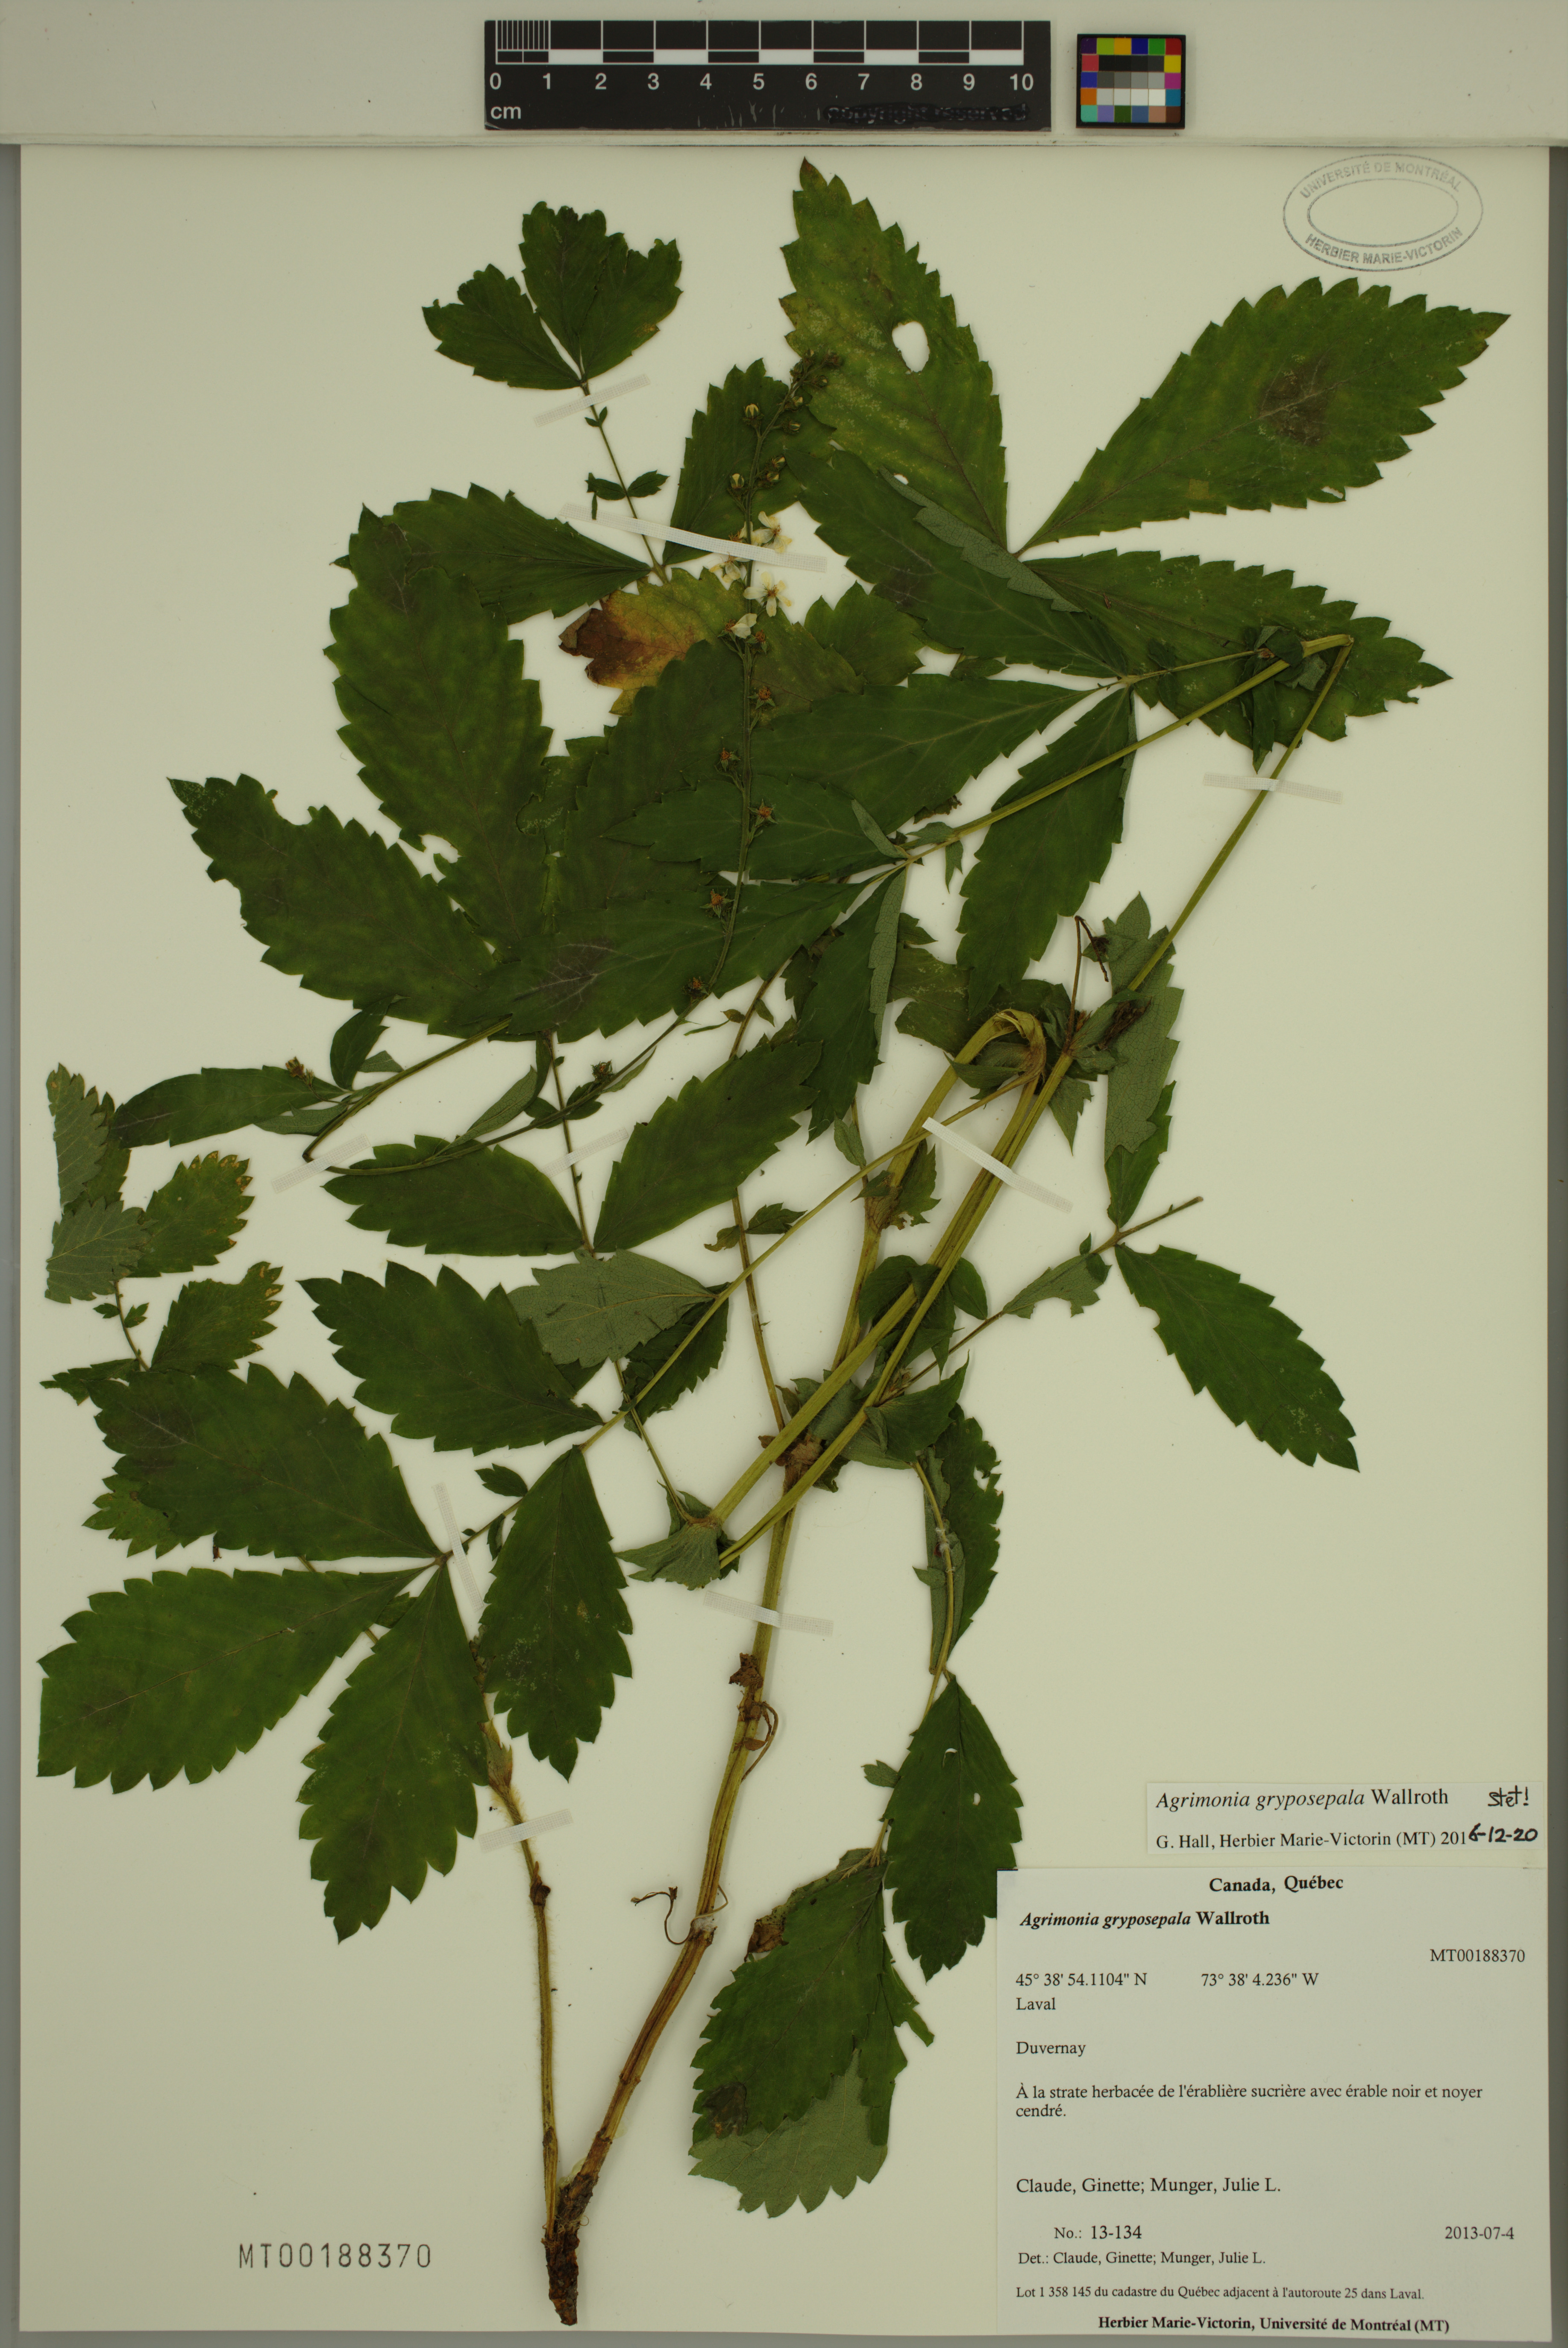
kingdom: Plantae
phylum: Tracheophyta
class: Magnoliopsida
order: Rosales
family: Rosaceae
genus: Agrimonia
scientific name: Agrimonia gryposepala
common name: Common agrimony
